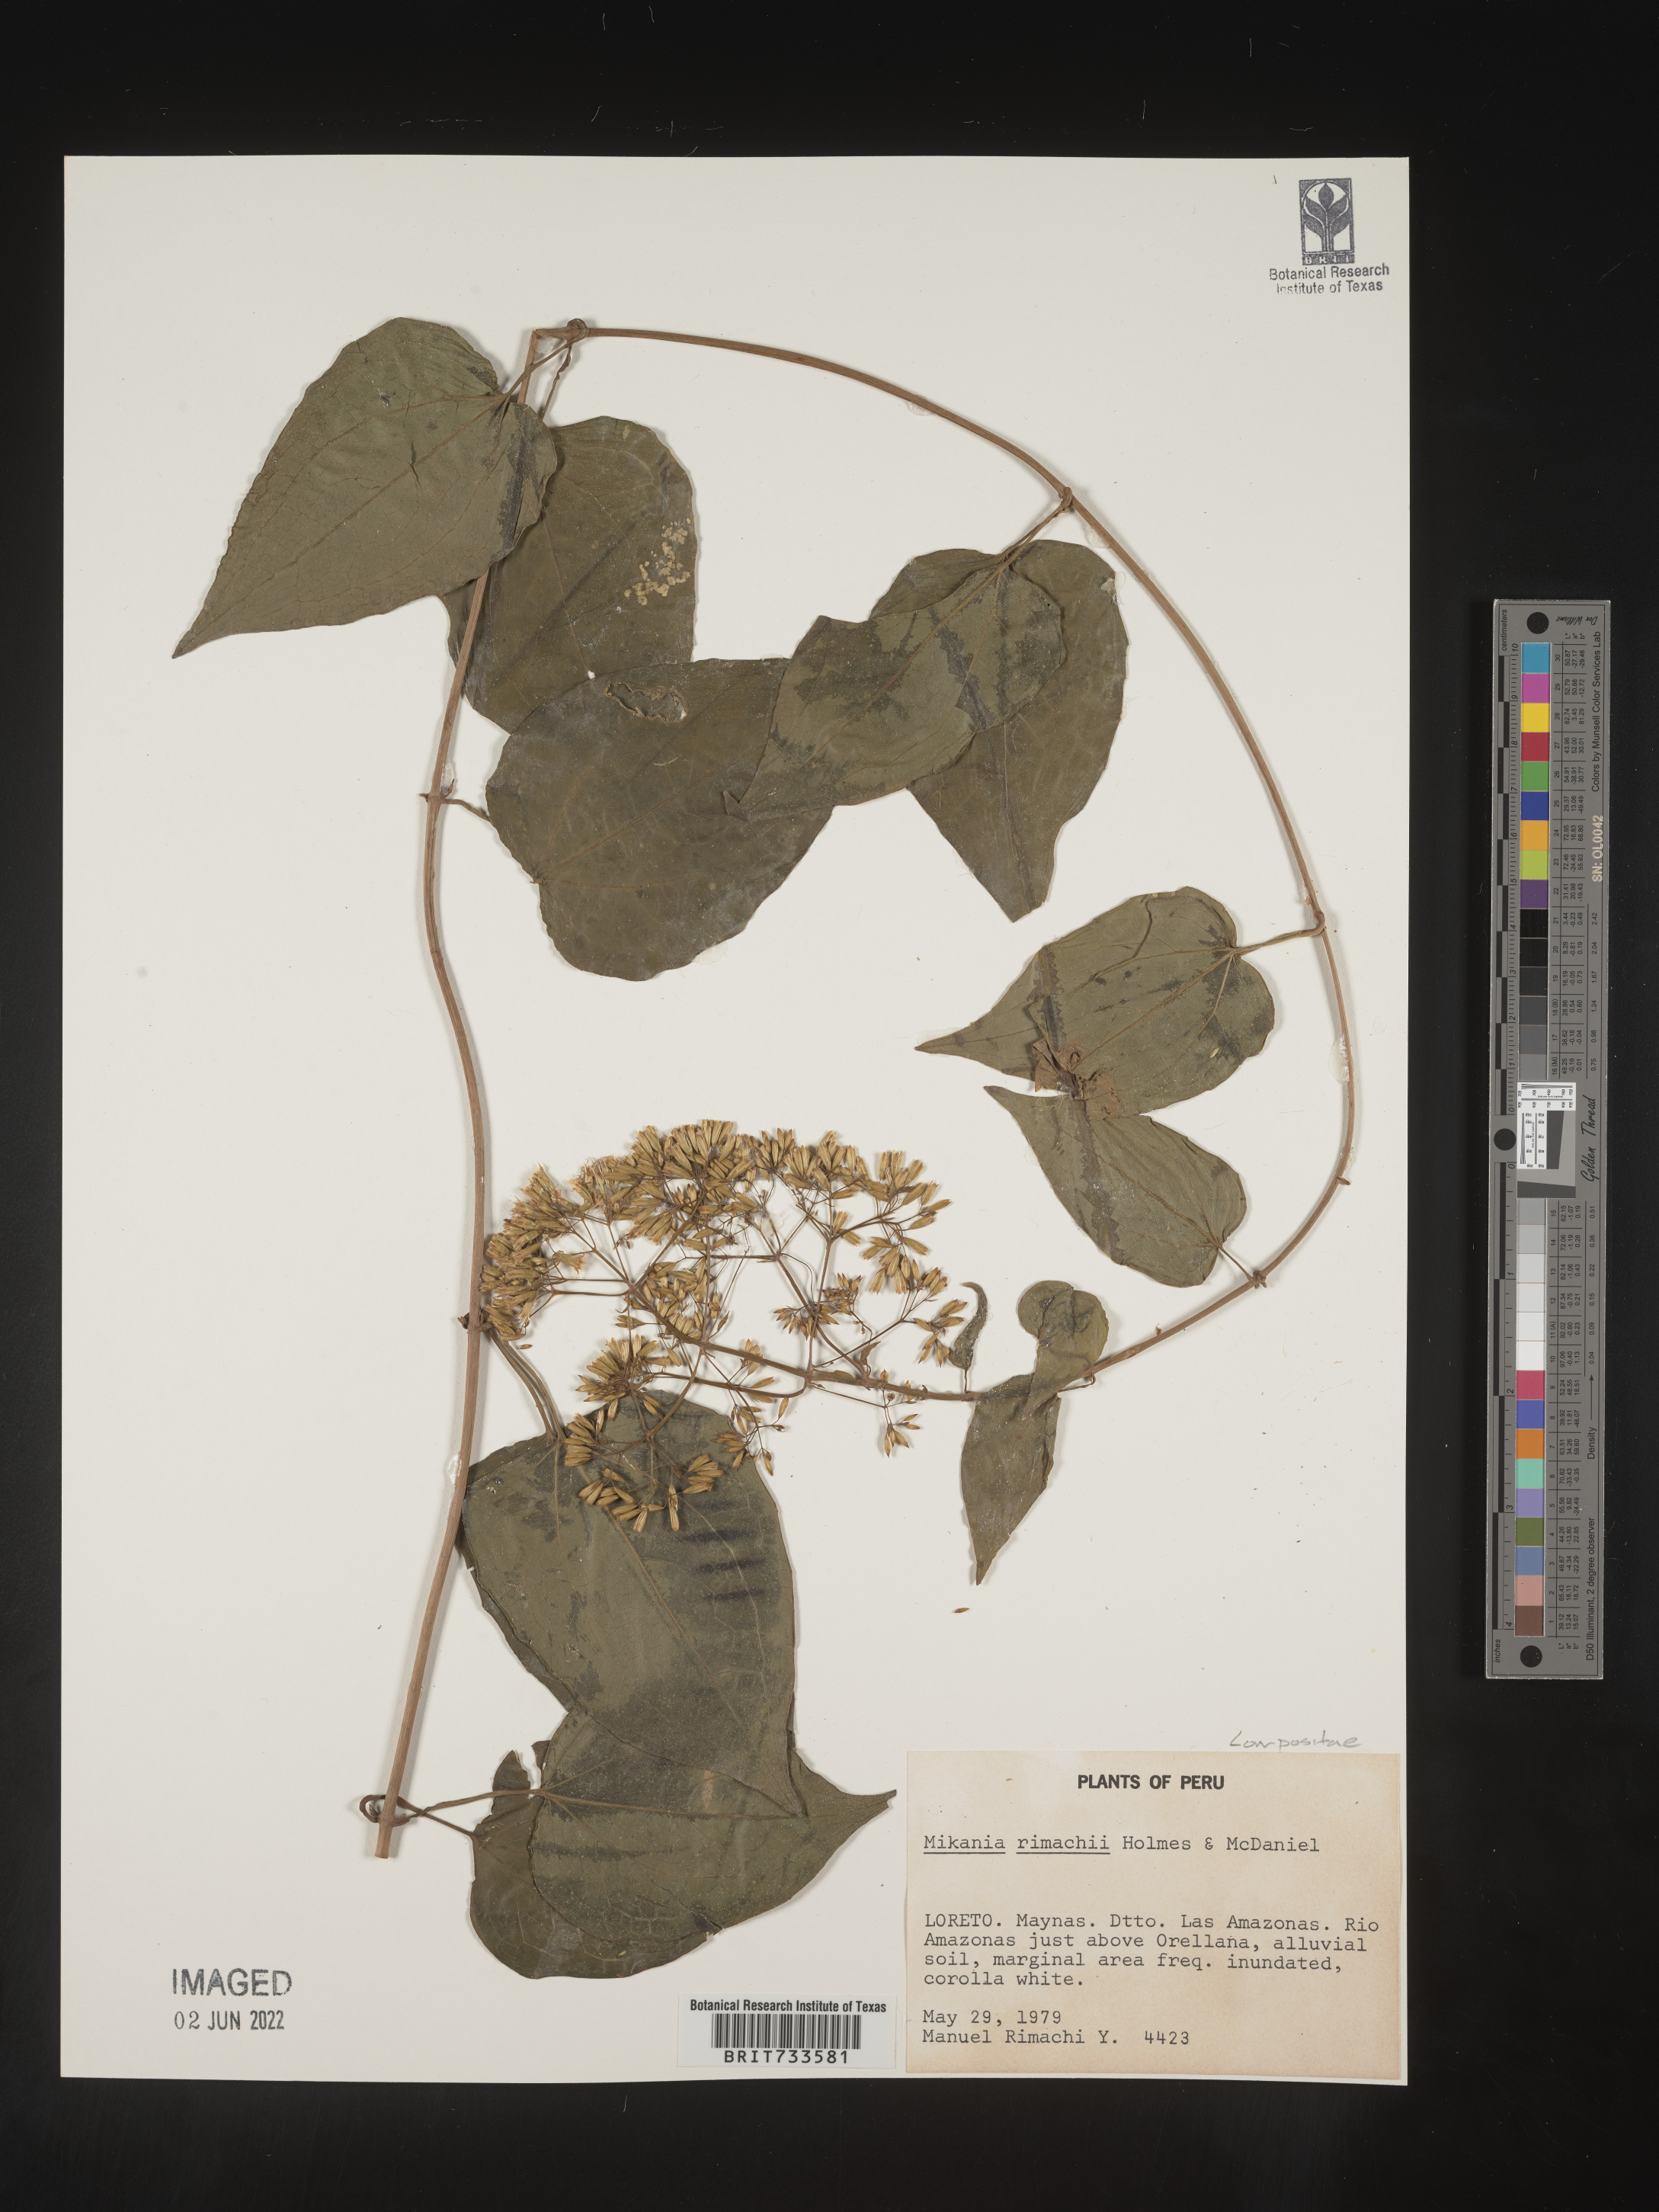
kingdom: Plantae
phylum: Tracheophyta
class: Magnoliopsida
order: Asterales
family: Asteraceae
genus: Mikania
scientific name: Mikania
